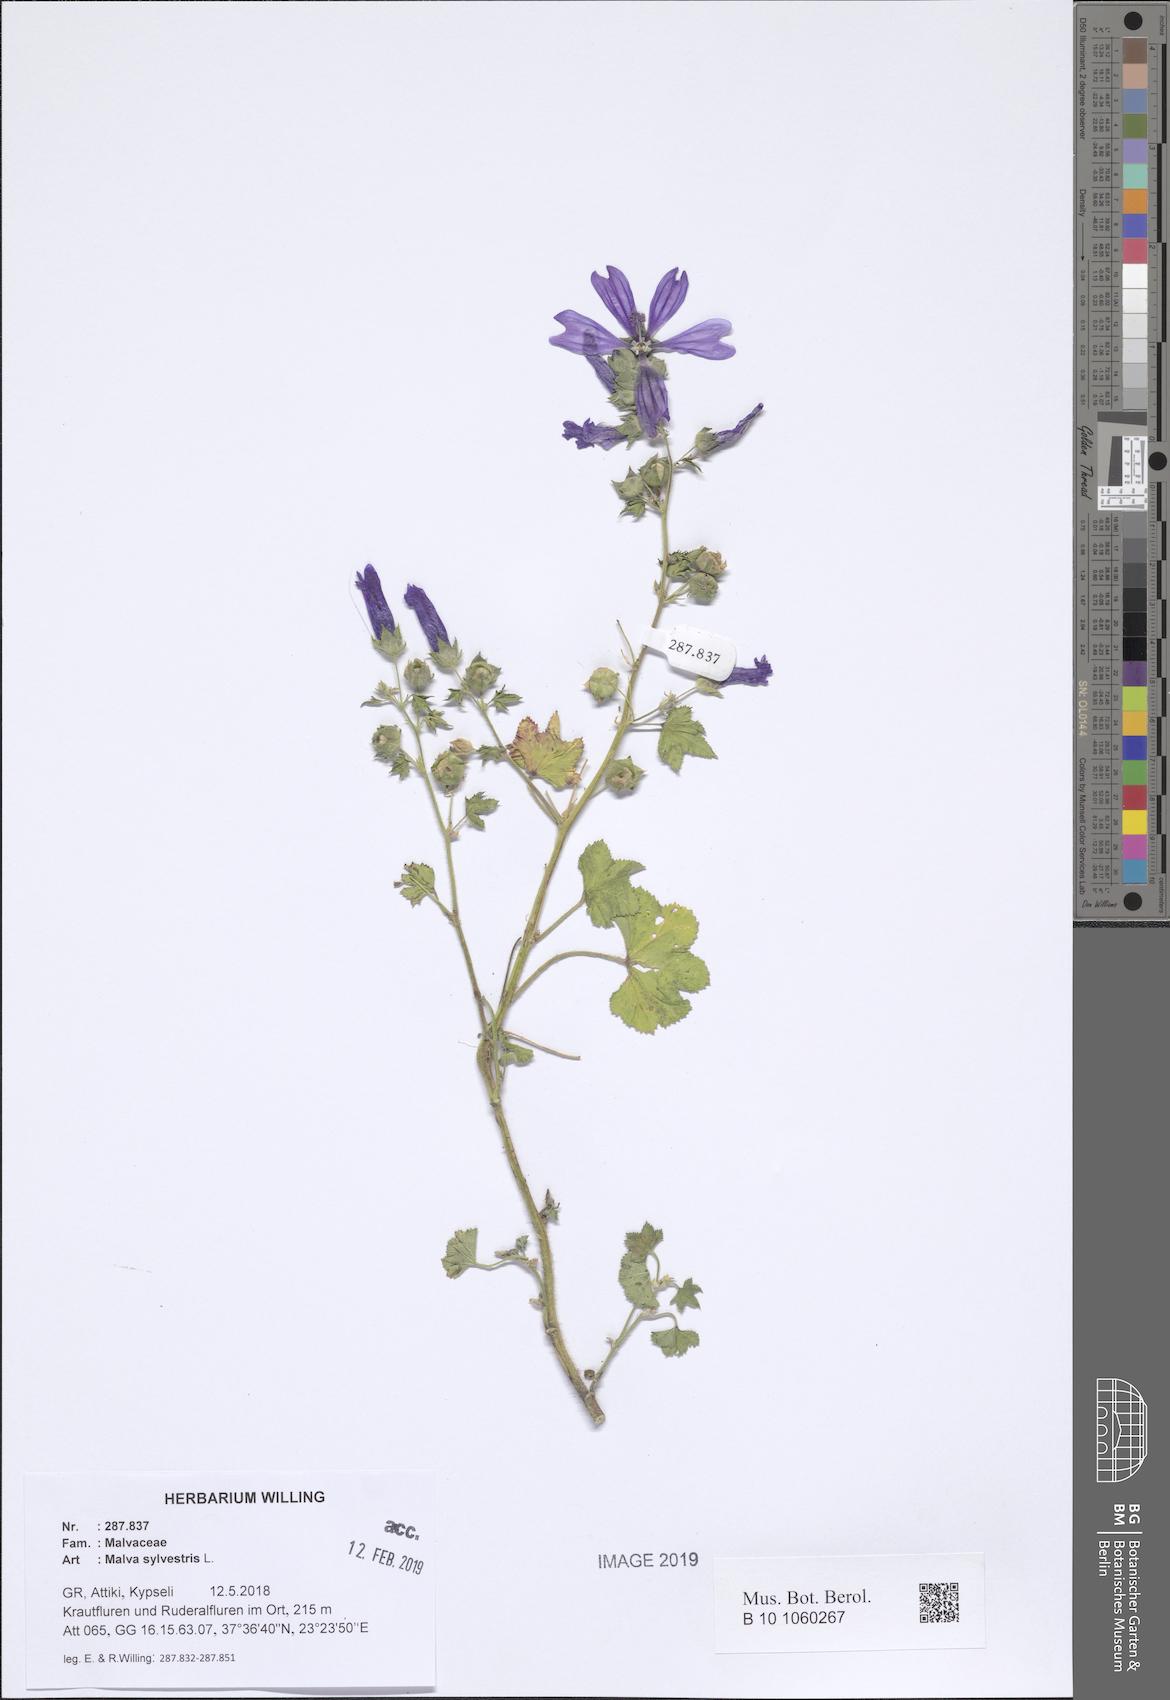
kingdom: Plantae
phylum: Tracheophyta
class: Magnoliopsida
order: Malvales
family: Malvaceae
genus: Malva
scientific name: Malva sylvestris
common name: Common mallow
